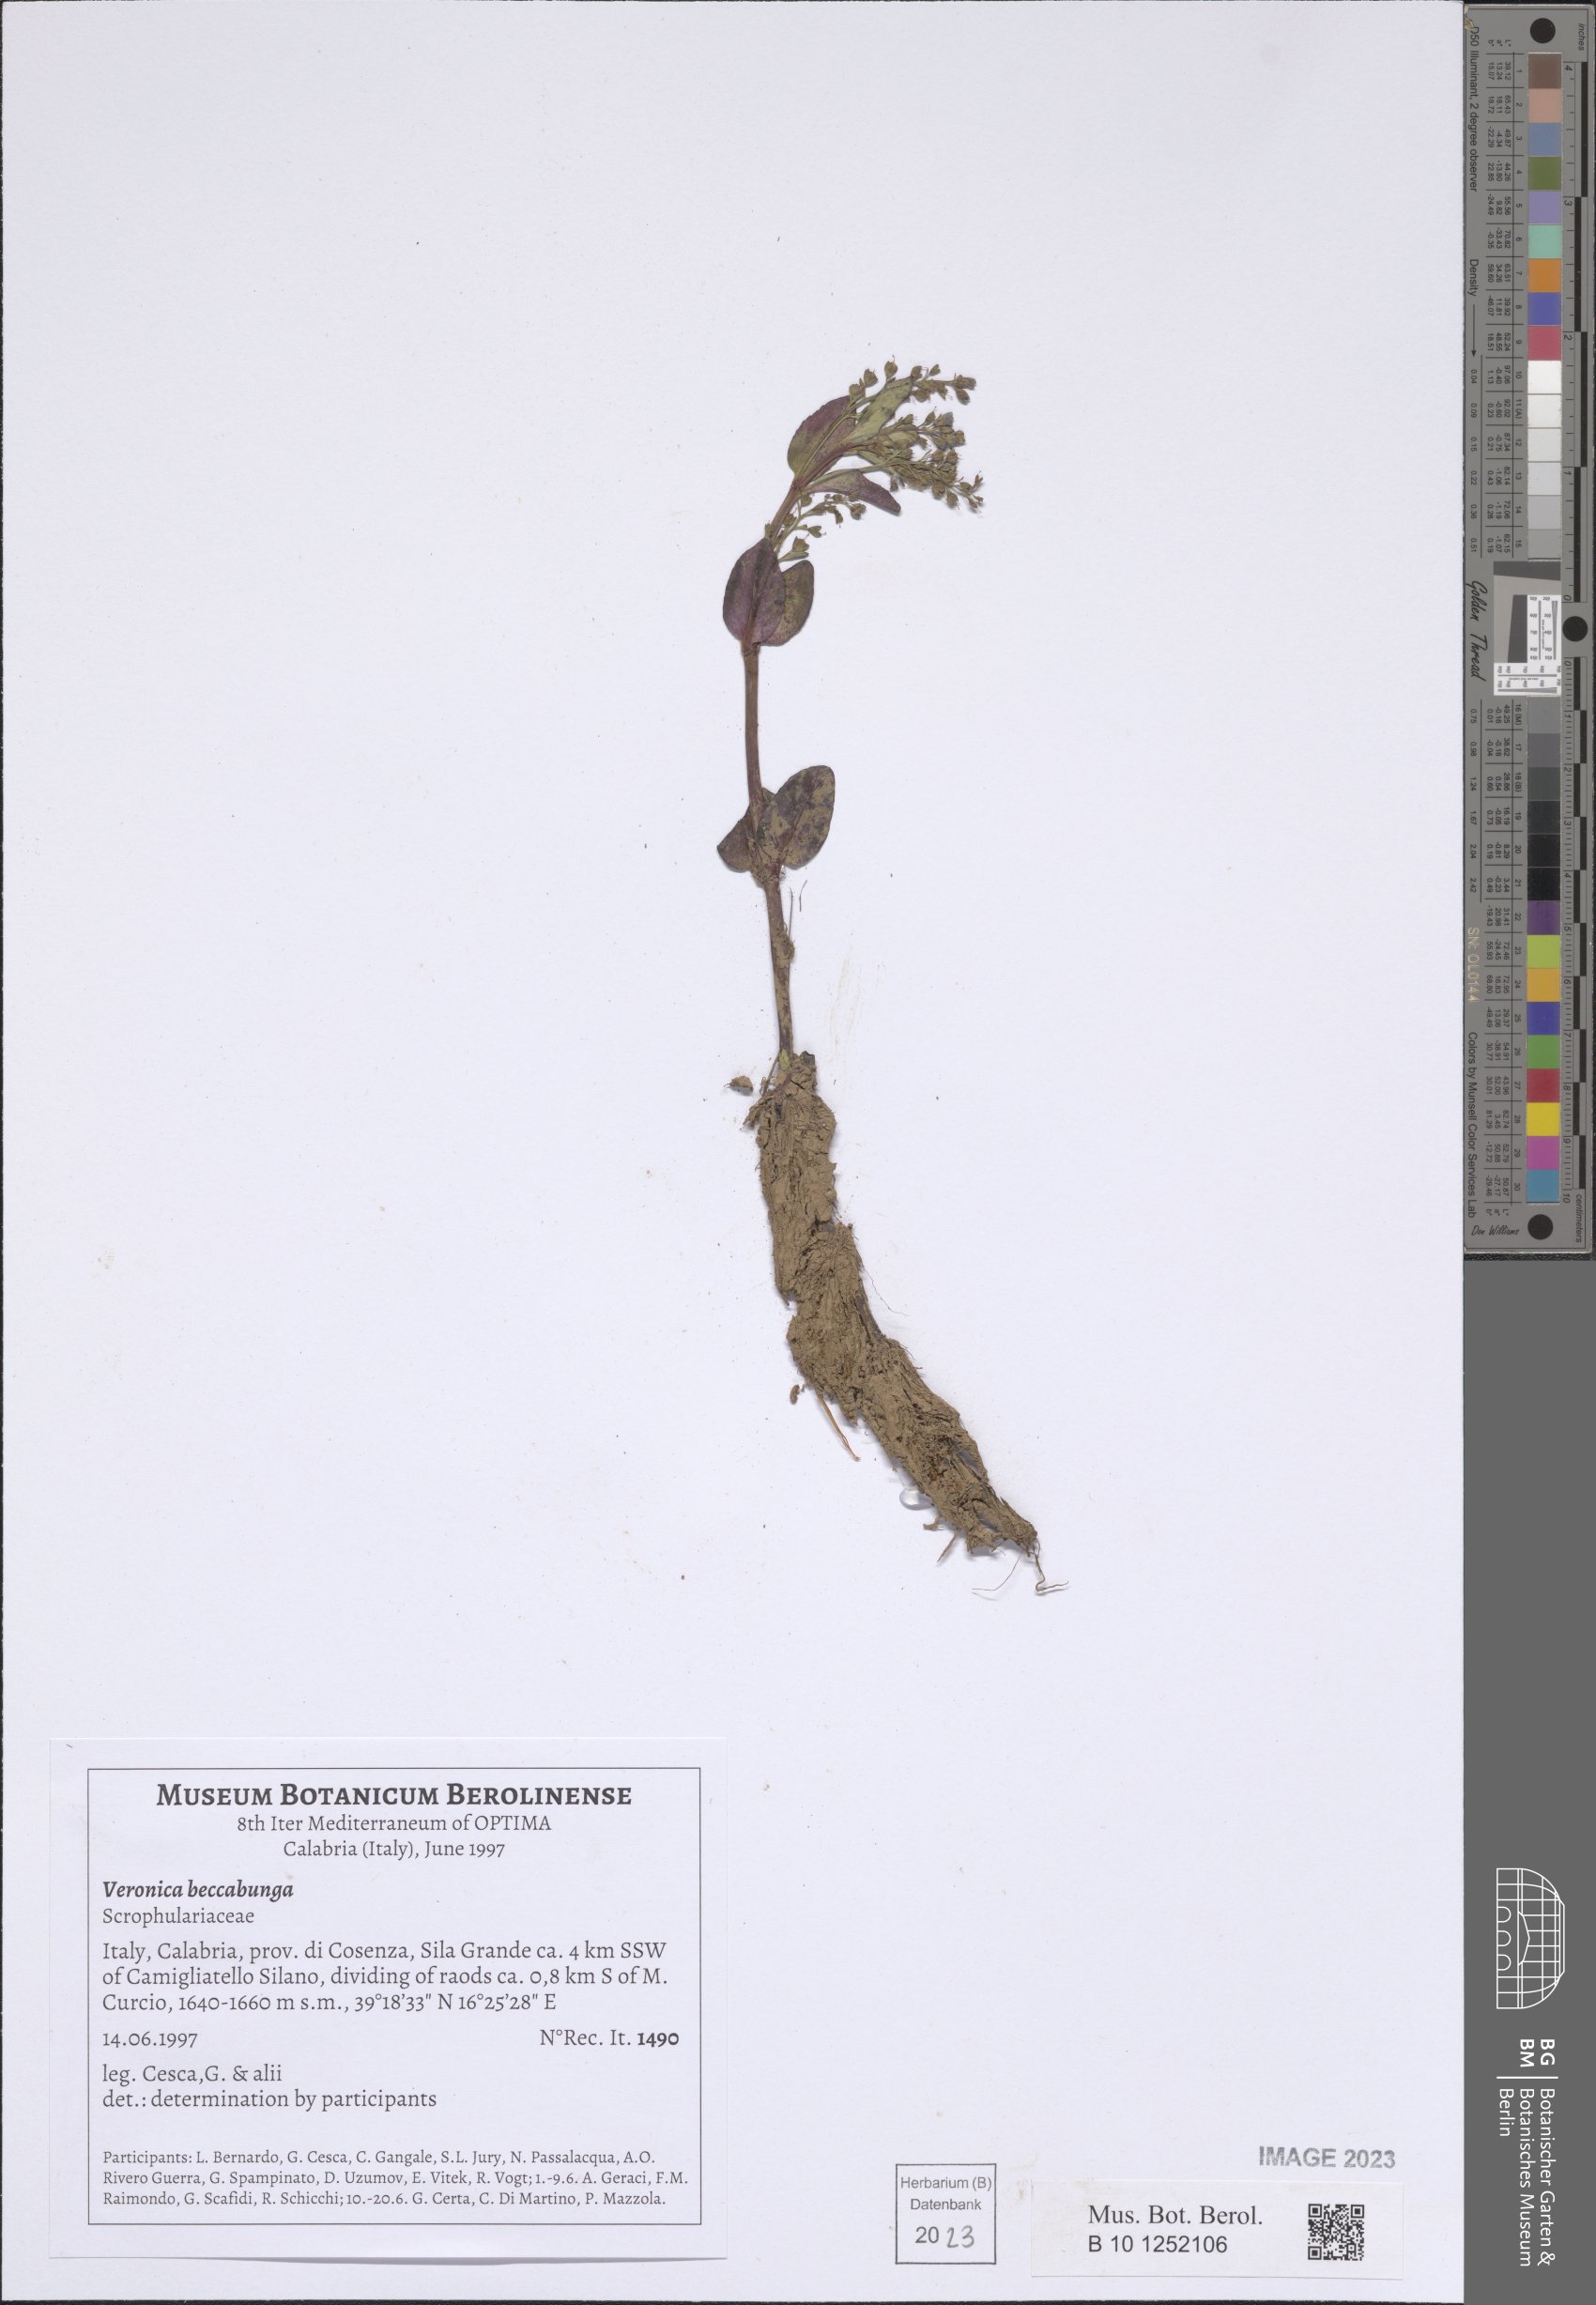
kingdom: Plantae
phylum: Tracheophyta
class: Magnoliopsida
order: Lamiales
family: Plantaginaceae
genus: Veronica
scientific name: Veronica beccabunga
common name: Brooklime
